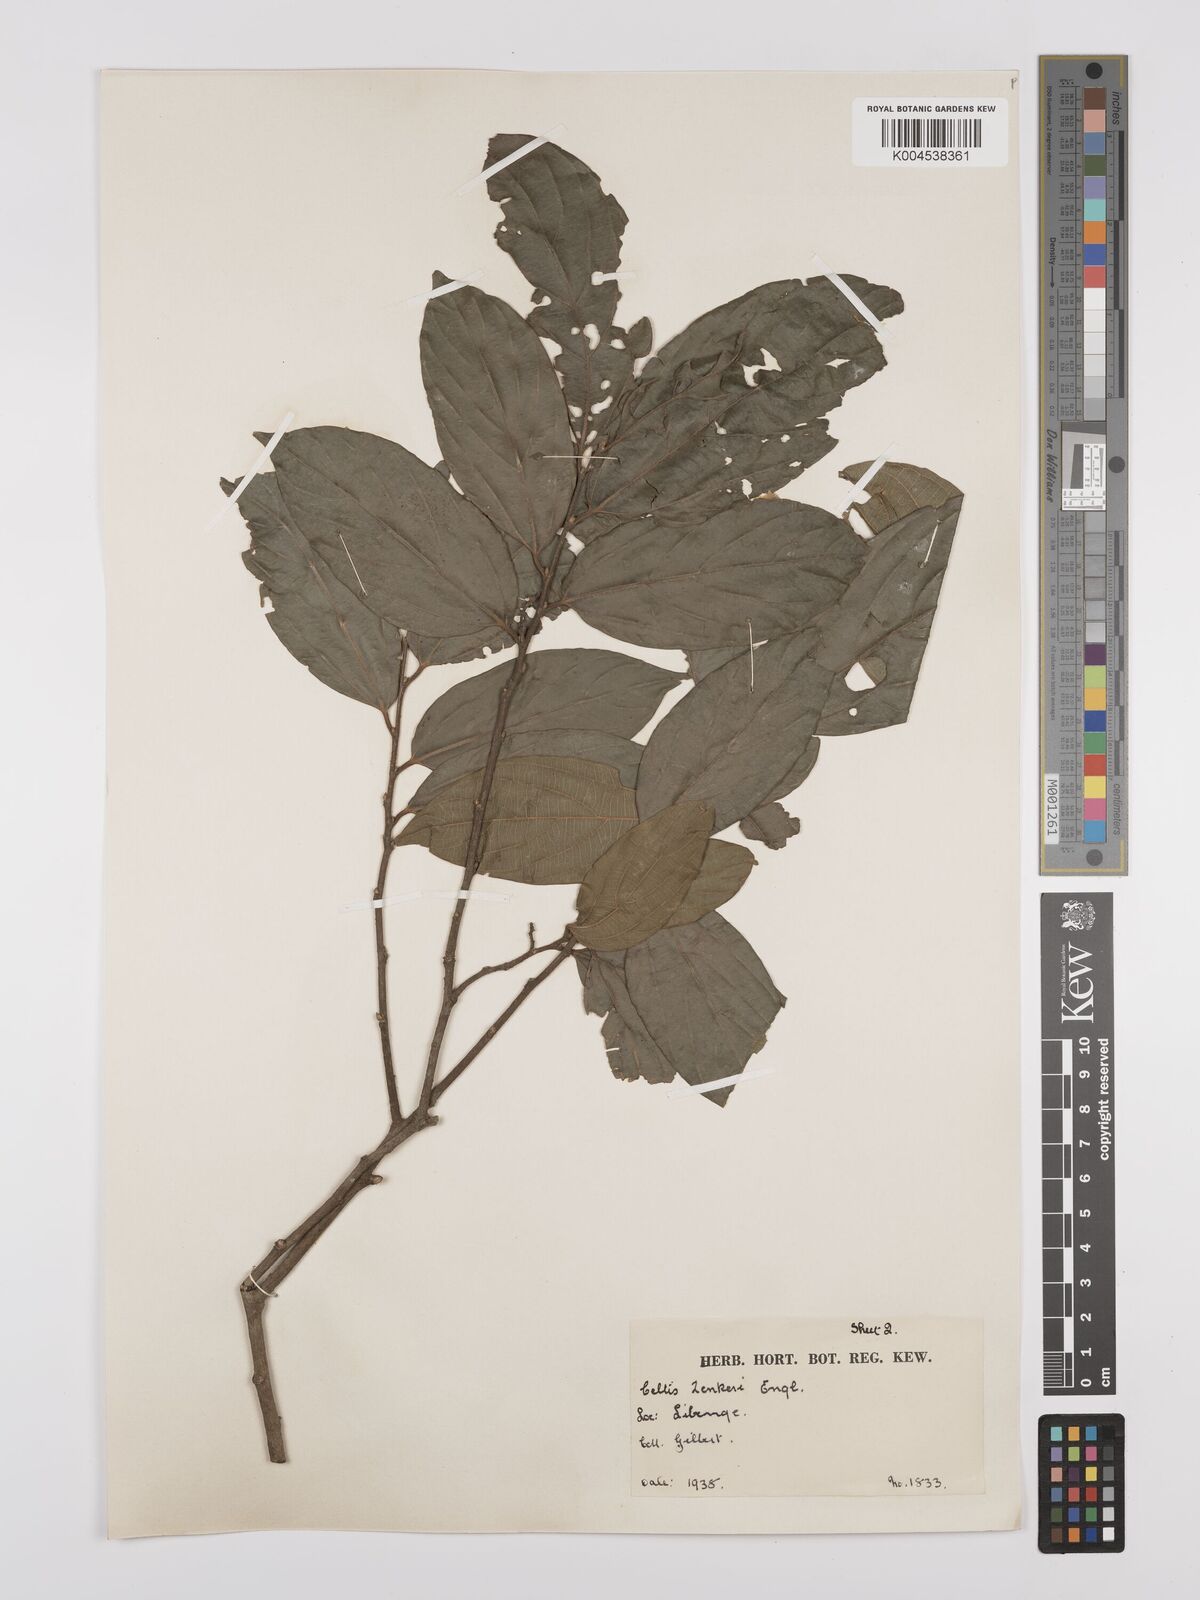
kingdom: Plantae
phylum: Tracheophyta
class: Magnoliopsida
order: Rosales
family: Cannabaceae
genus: Celtis
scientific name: Celtis zenkeri
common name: African celtis
